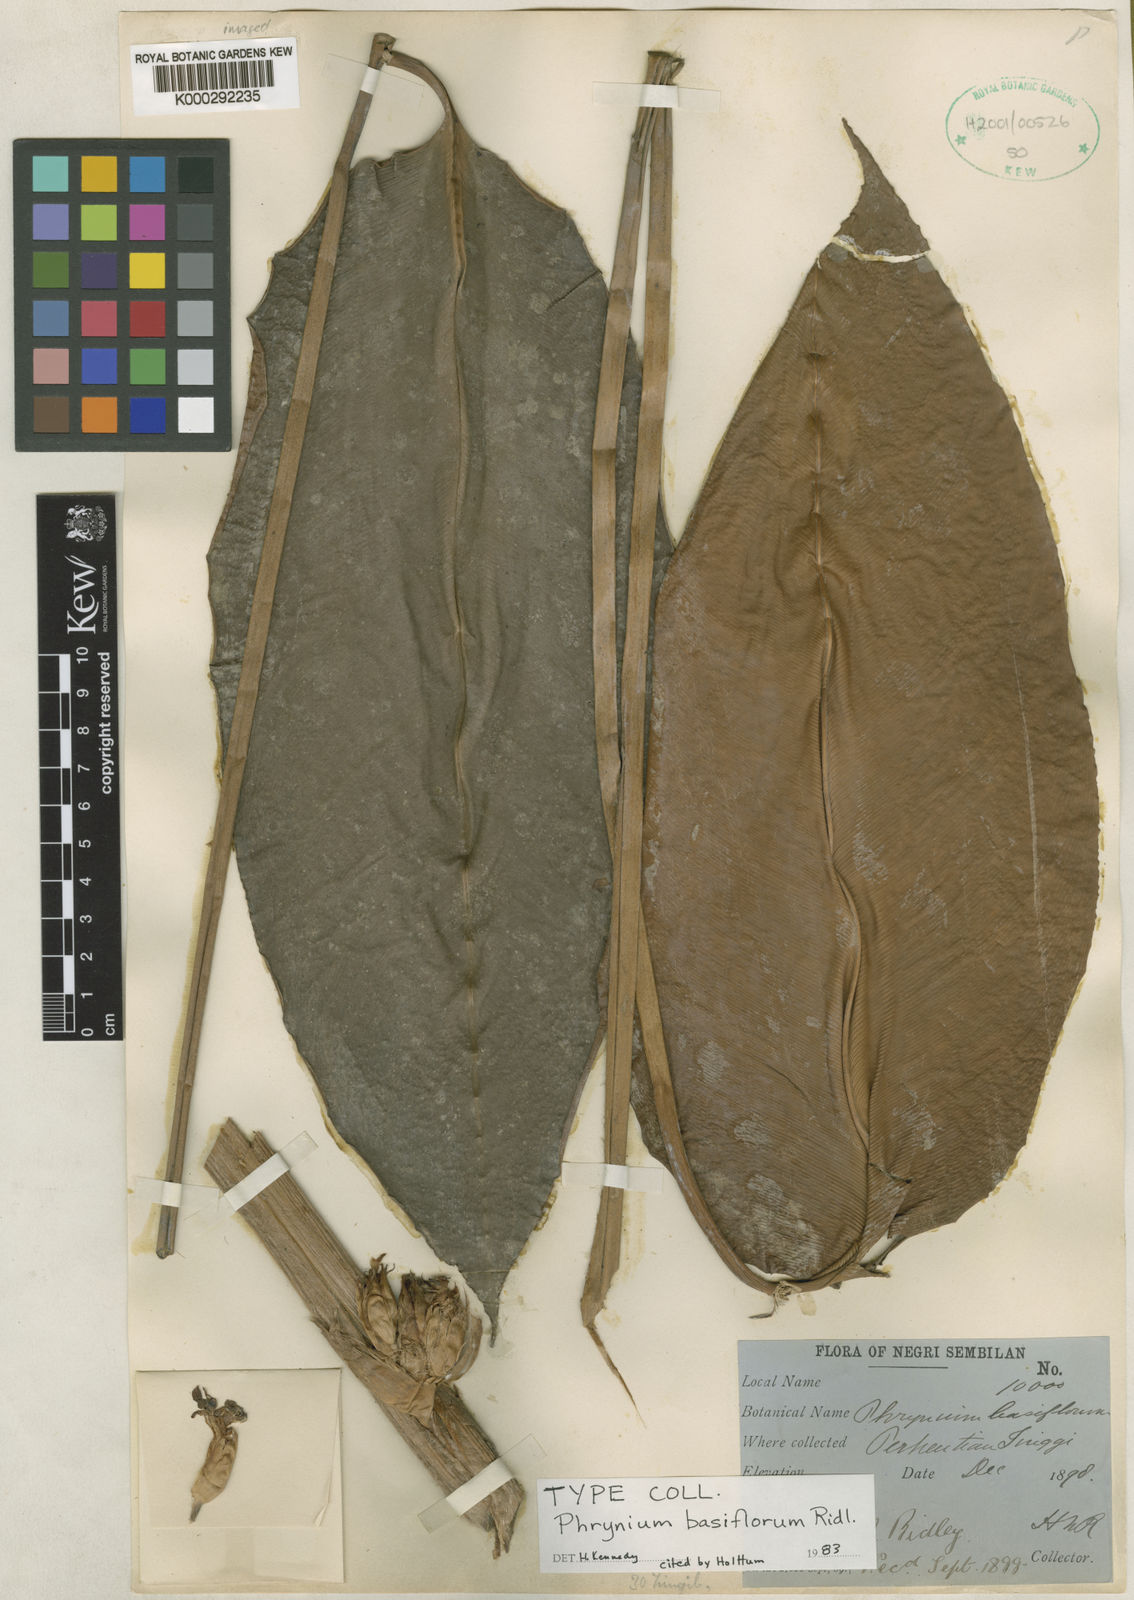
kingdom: Plantae
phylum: Tracheophyta
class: Liliopsida
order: Zingiberales
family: Marantaceae
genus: Phrynium
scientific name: Phrynium villosulum
